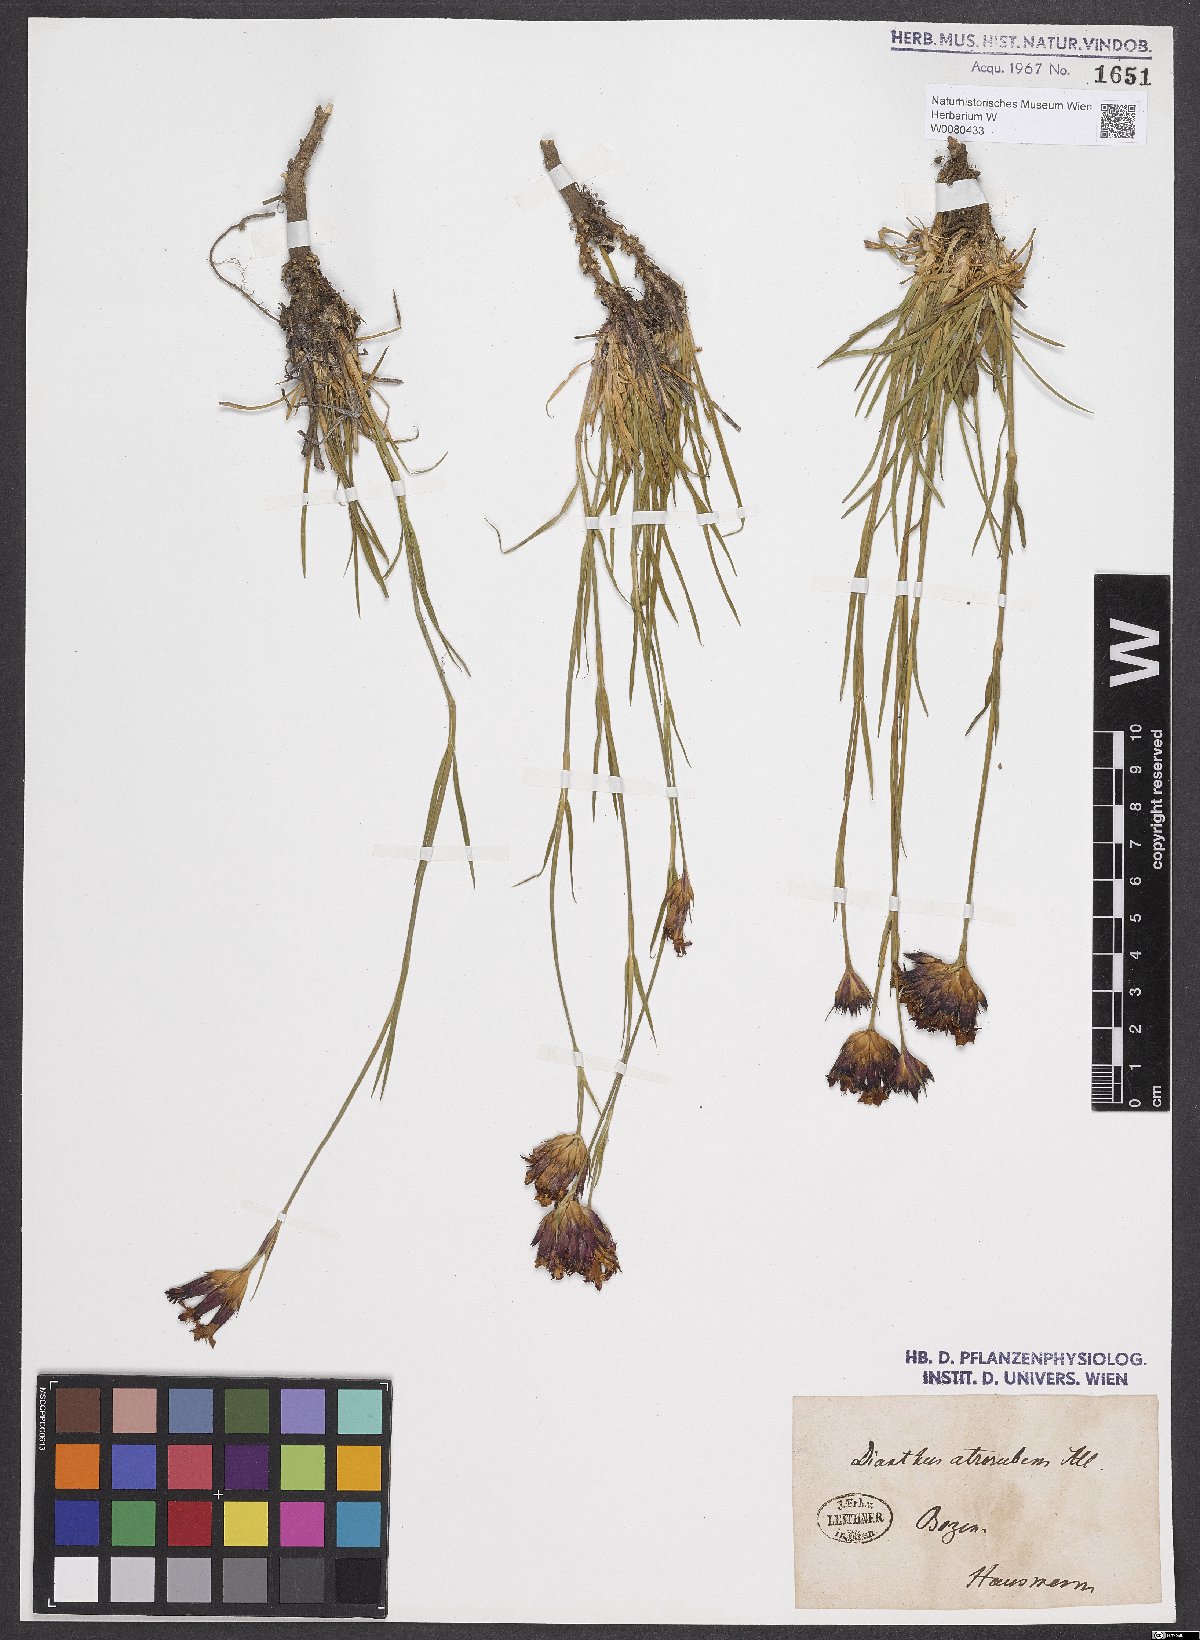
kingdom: Plantae
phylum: Tracheophyta
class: Magnoliopsida
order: Caryophyllales
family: Caryophyllaceae
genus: Dianthus
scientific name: Dianthus carthusianorum
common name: Carthusian pink
